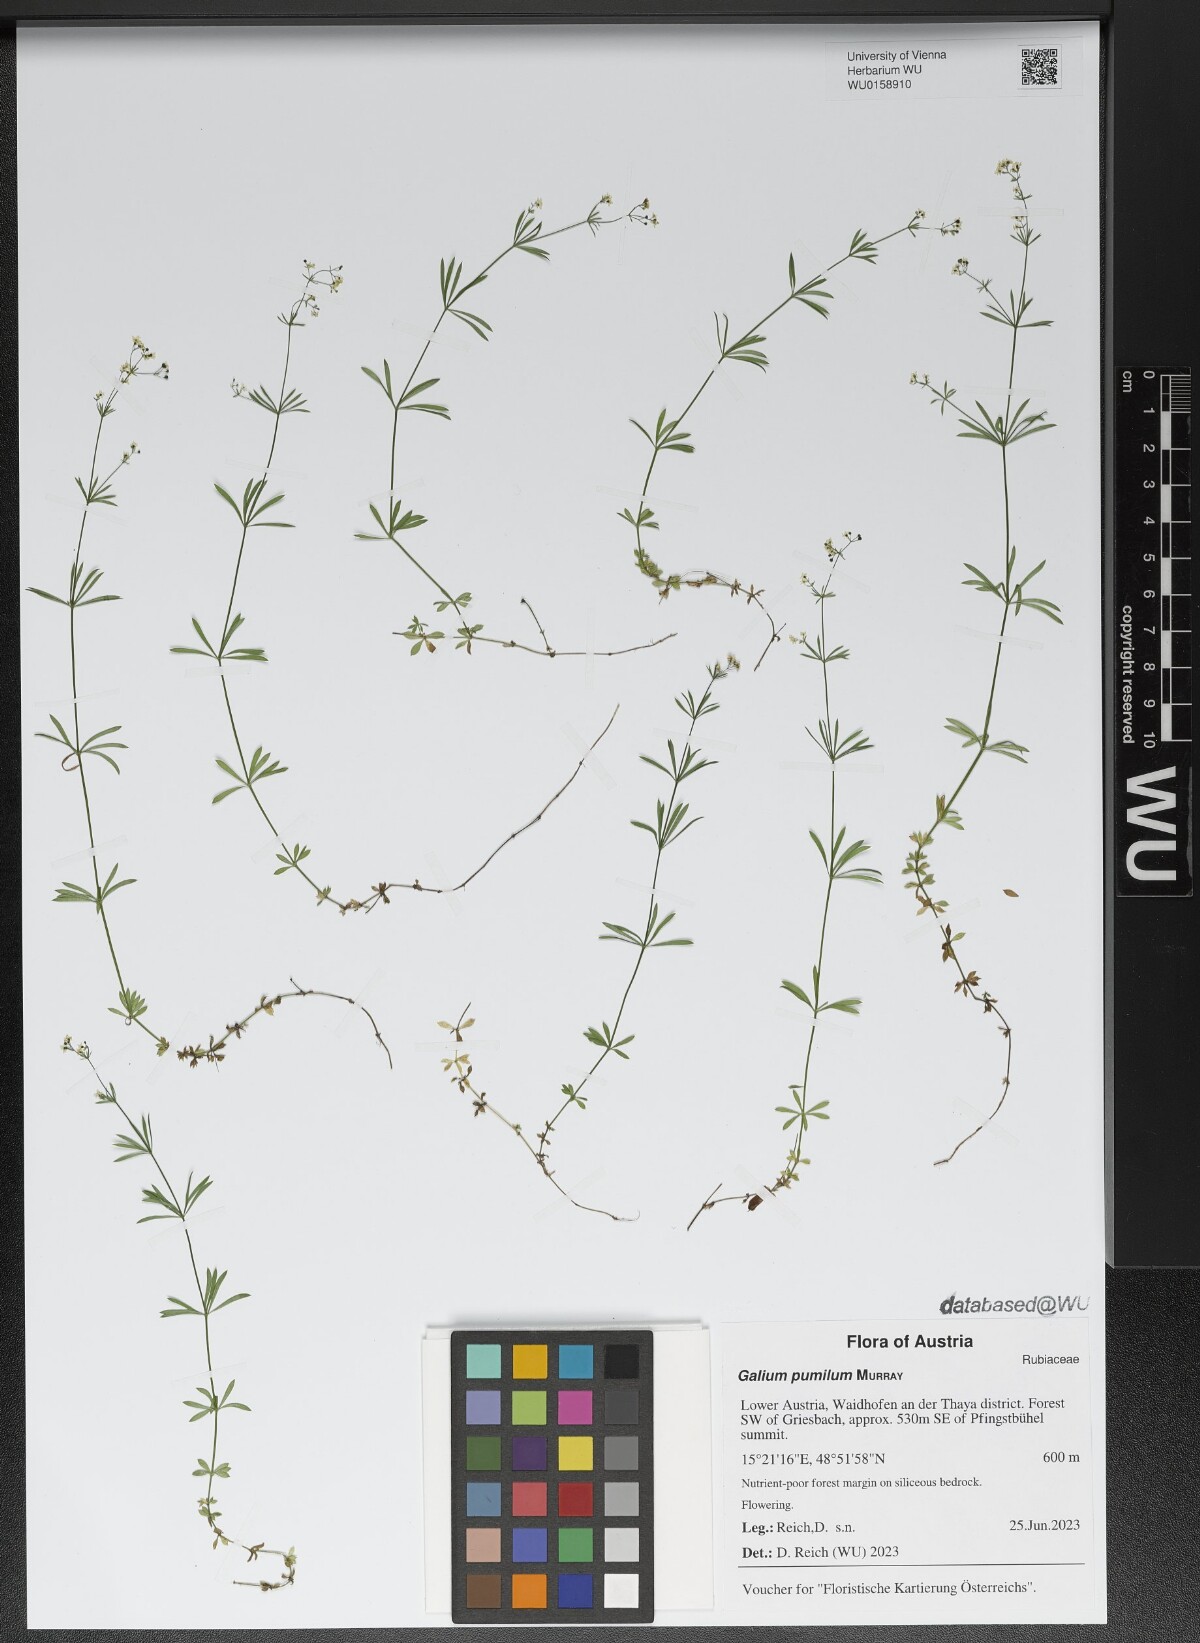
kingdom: Plantae
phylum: Tracheophyta
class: Magnoliopsida
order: Gentianales
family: Rubiaceae
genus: Galium
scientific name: Galium pumilum
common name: Slender bedstraw
